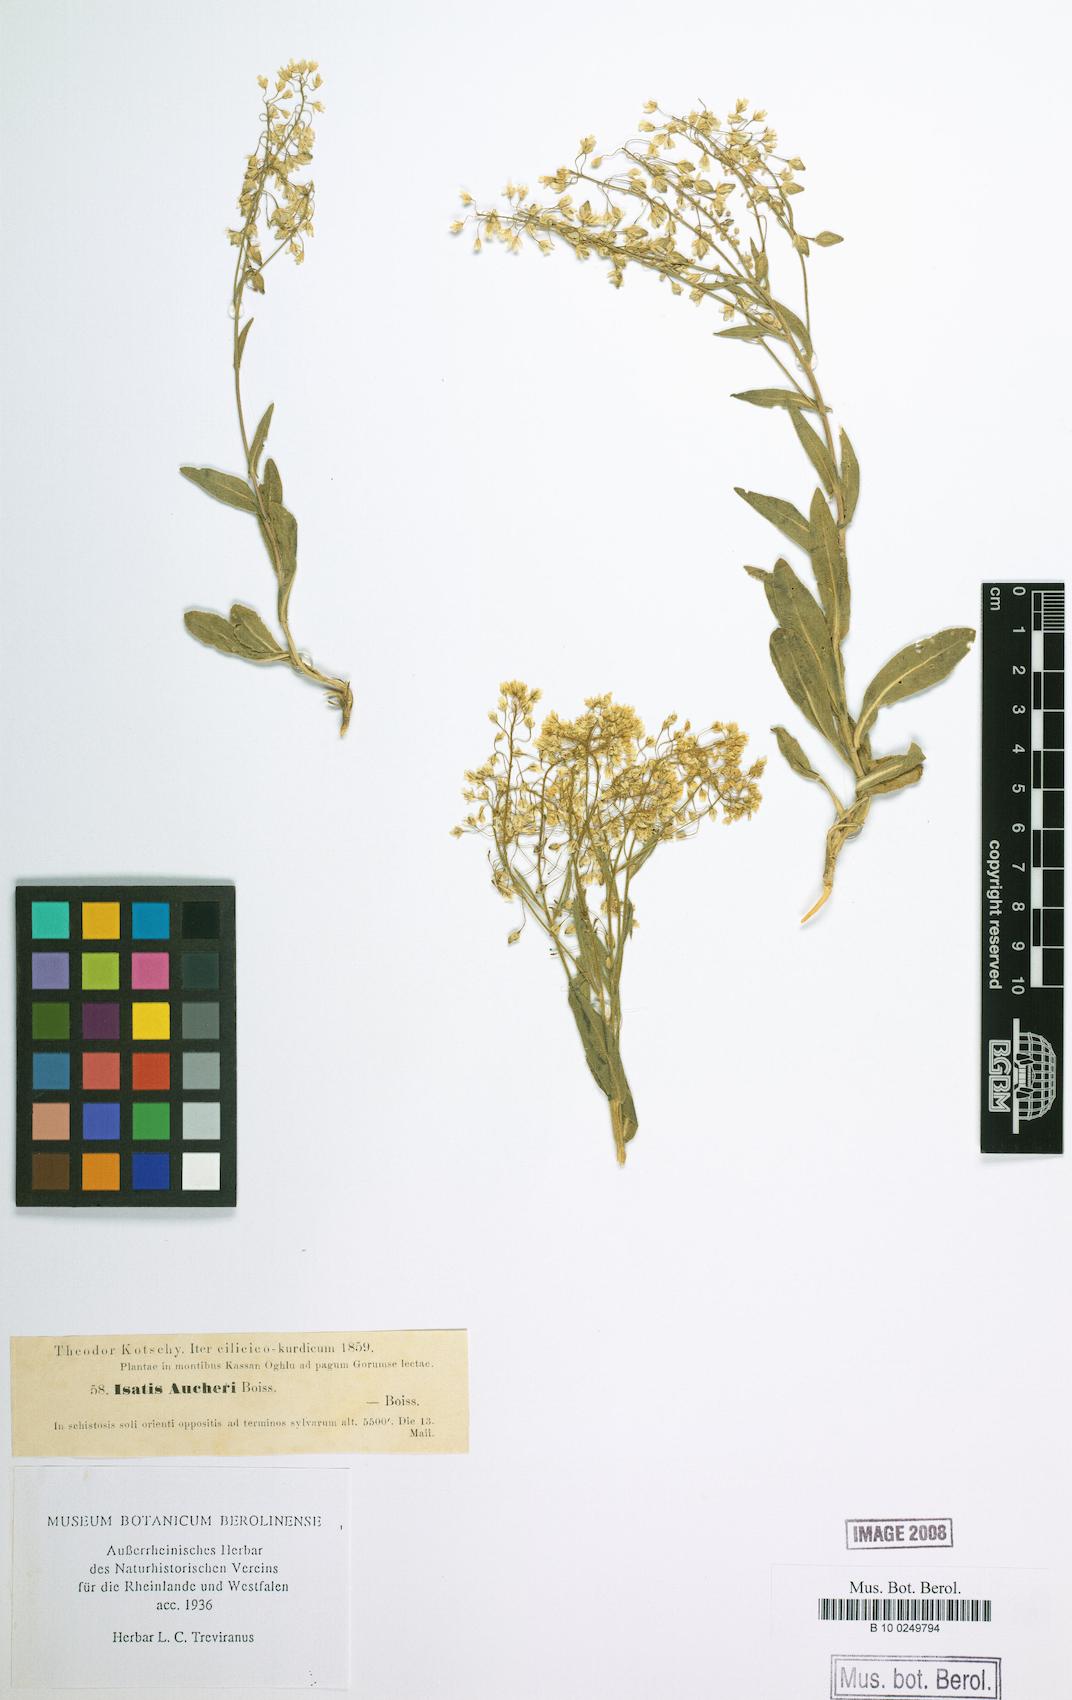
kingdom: Plantae
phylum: Tracheophyta
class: Magnoliopsida
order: Brassicales
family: Brassicaceae
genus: Isatis
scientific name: Isatis aucheri
